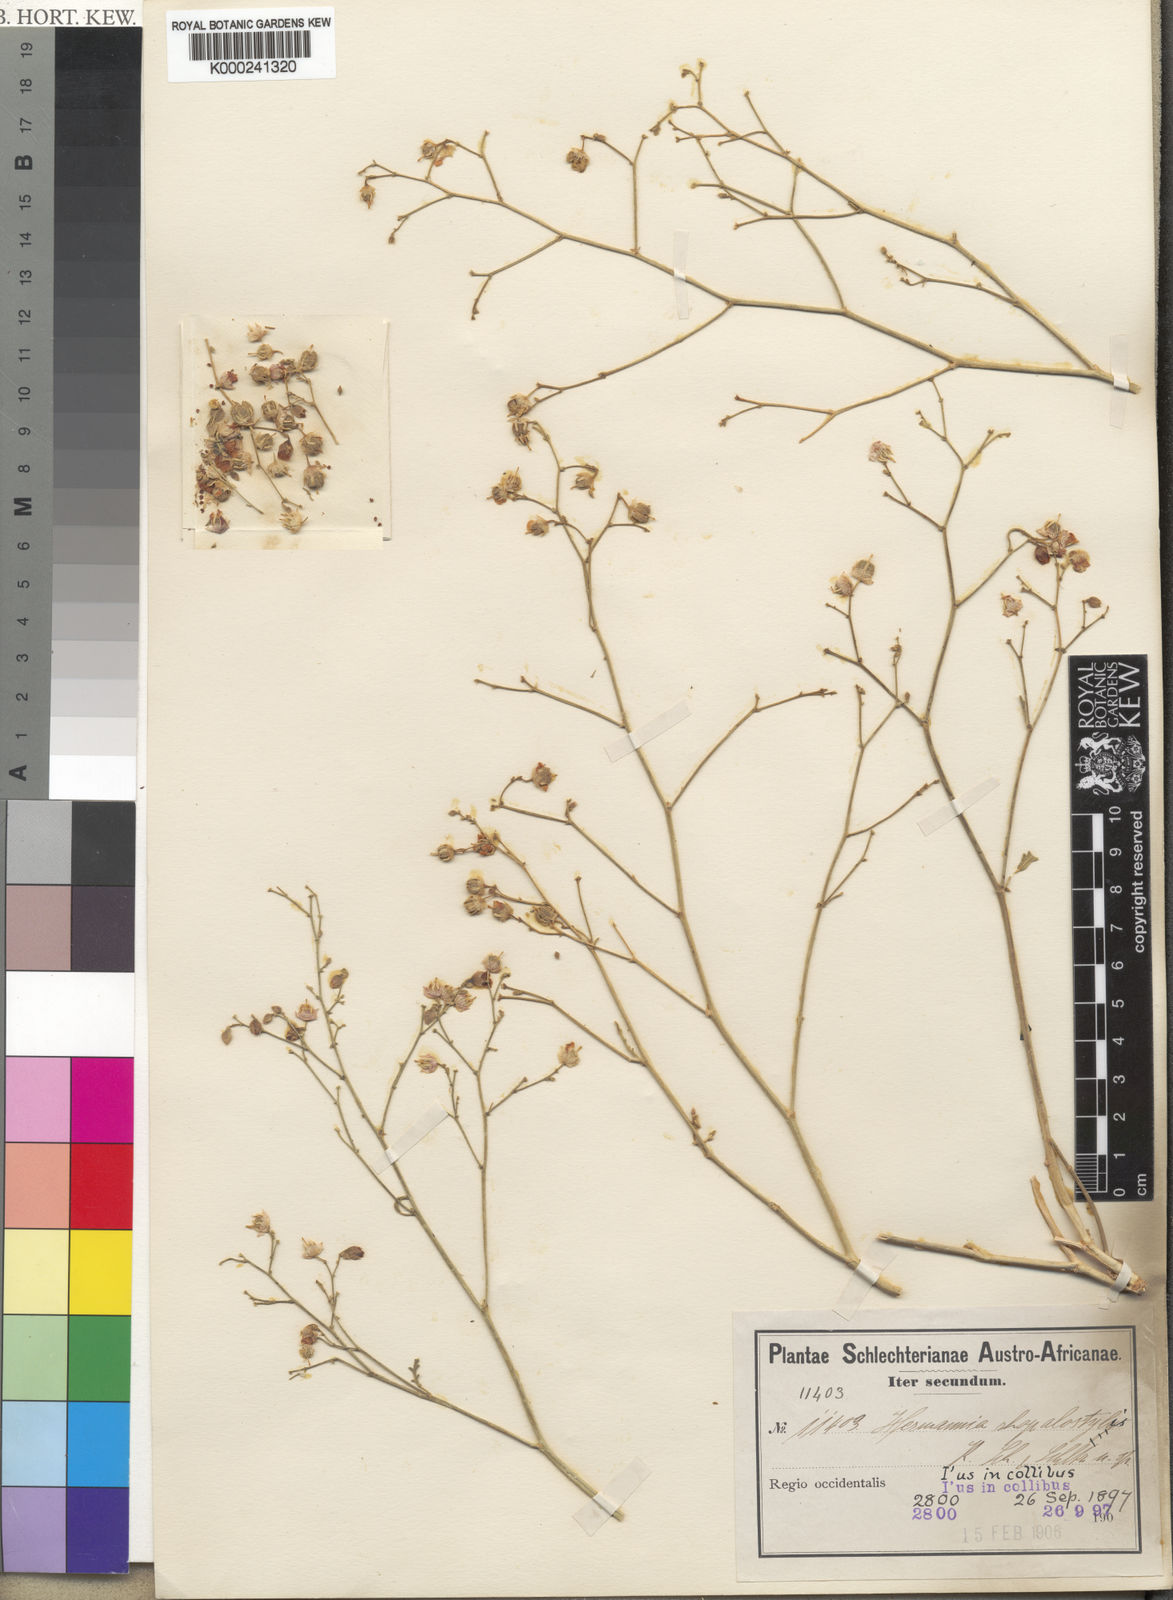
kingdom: Plantae
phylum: Tracheophyta
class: Magnoliopsida
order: Malvales
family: Malvaceae
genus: Hermannia
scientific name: Hermannia
